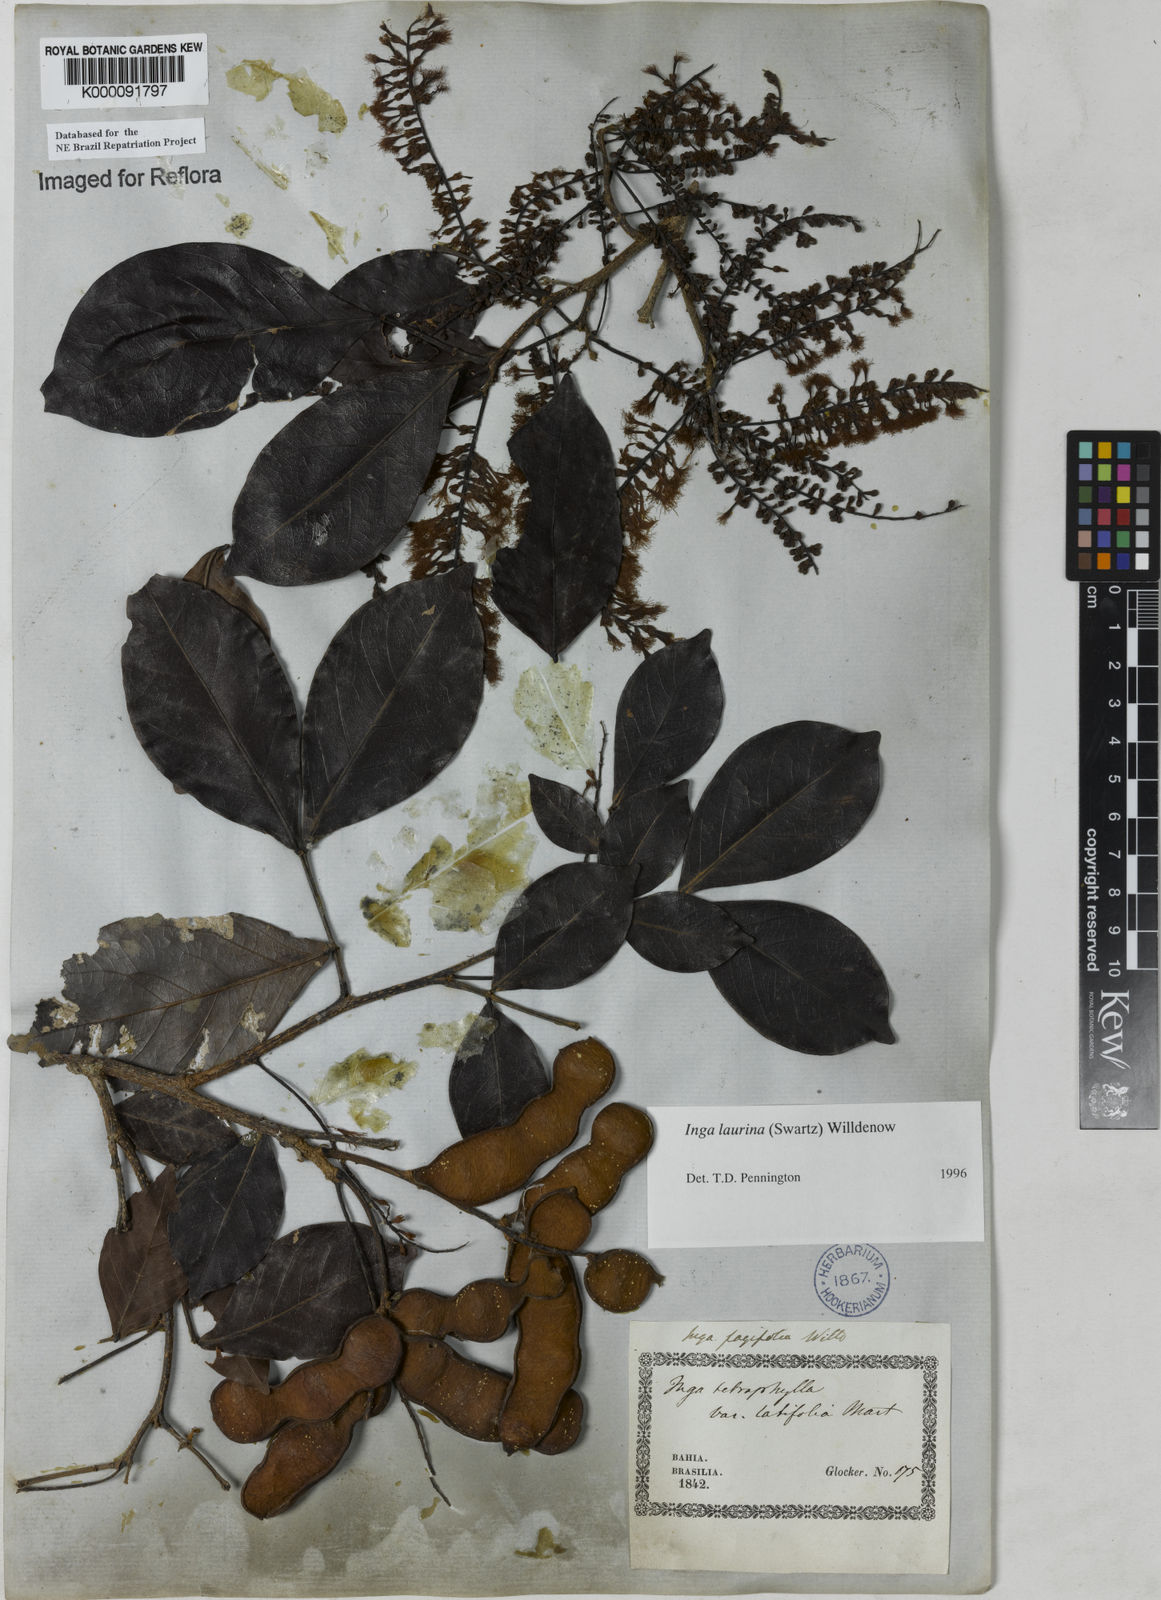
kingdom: Plantae
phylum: Tracheophyta
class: Magnoliopsida
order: Fabales
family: Fabaceae
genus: Inga
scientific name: Inga laurina
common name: Red wood
